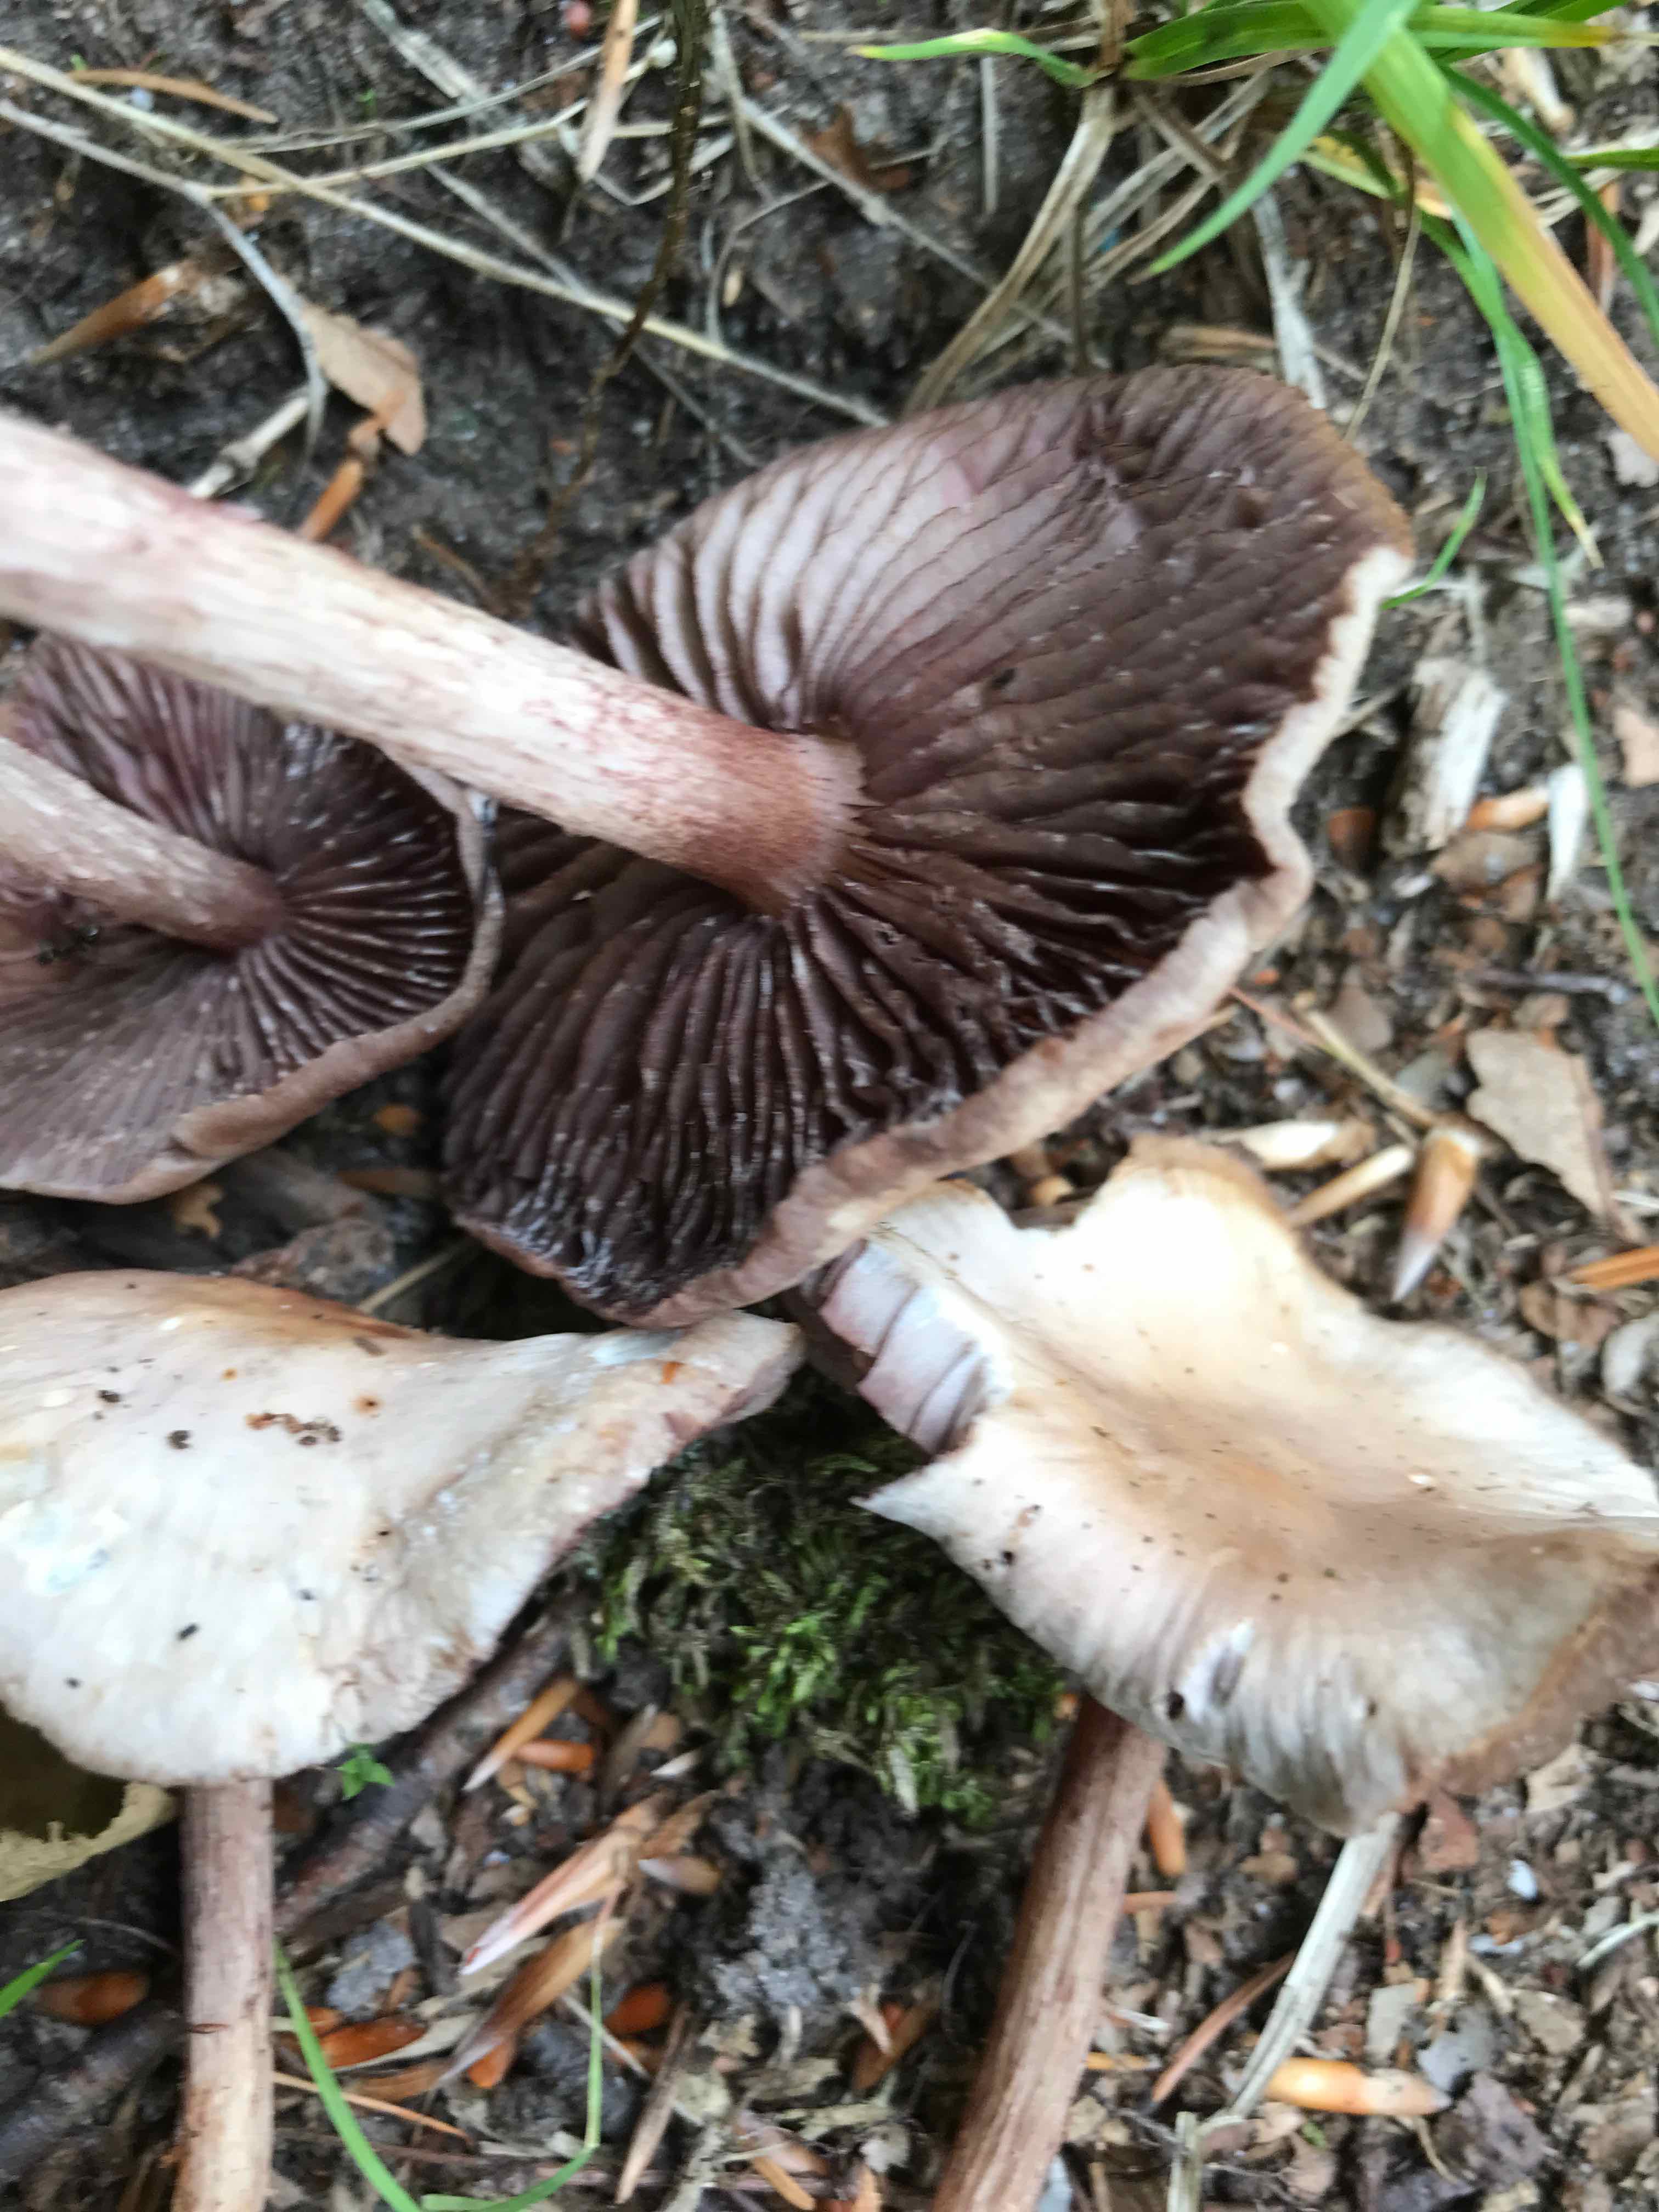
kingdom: Fungi
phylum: Basidiomycota
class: Agaricomycetes
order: Agaricales
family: Mycenaceae
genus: Mycena
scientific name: Mycena pelianthina
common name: mørkbladet huesvamp
